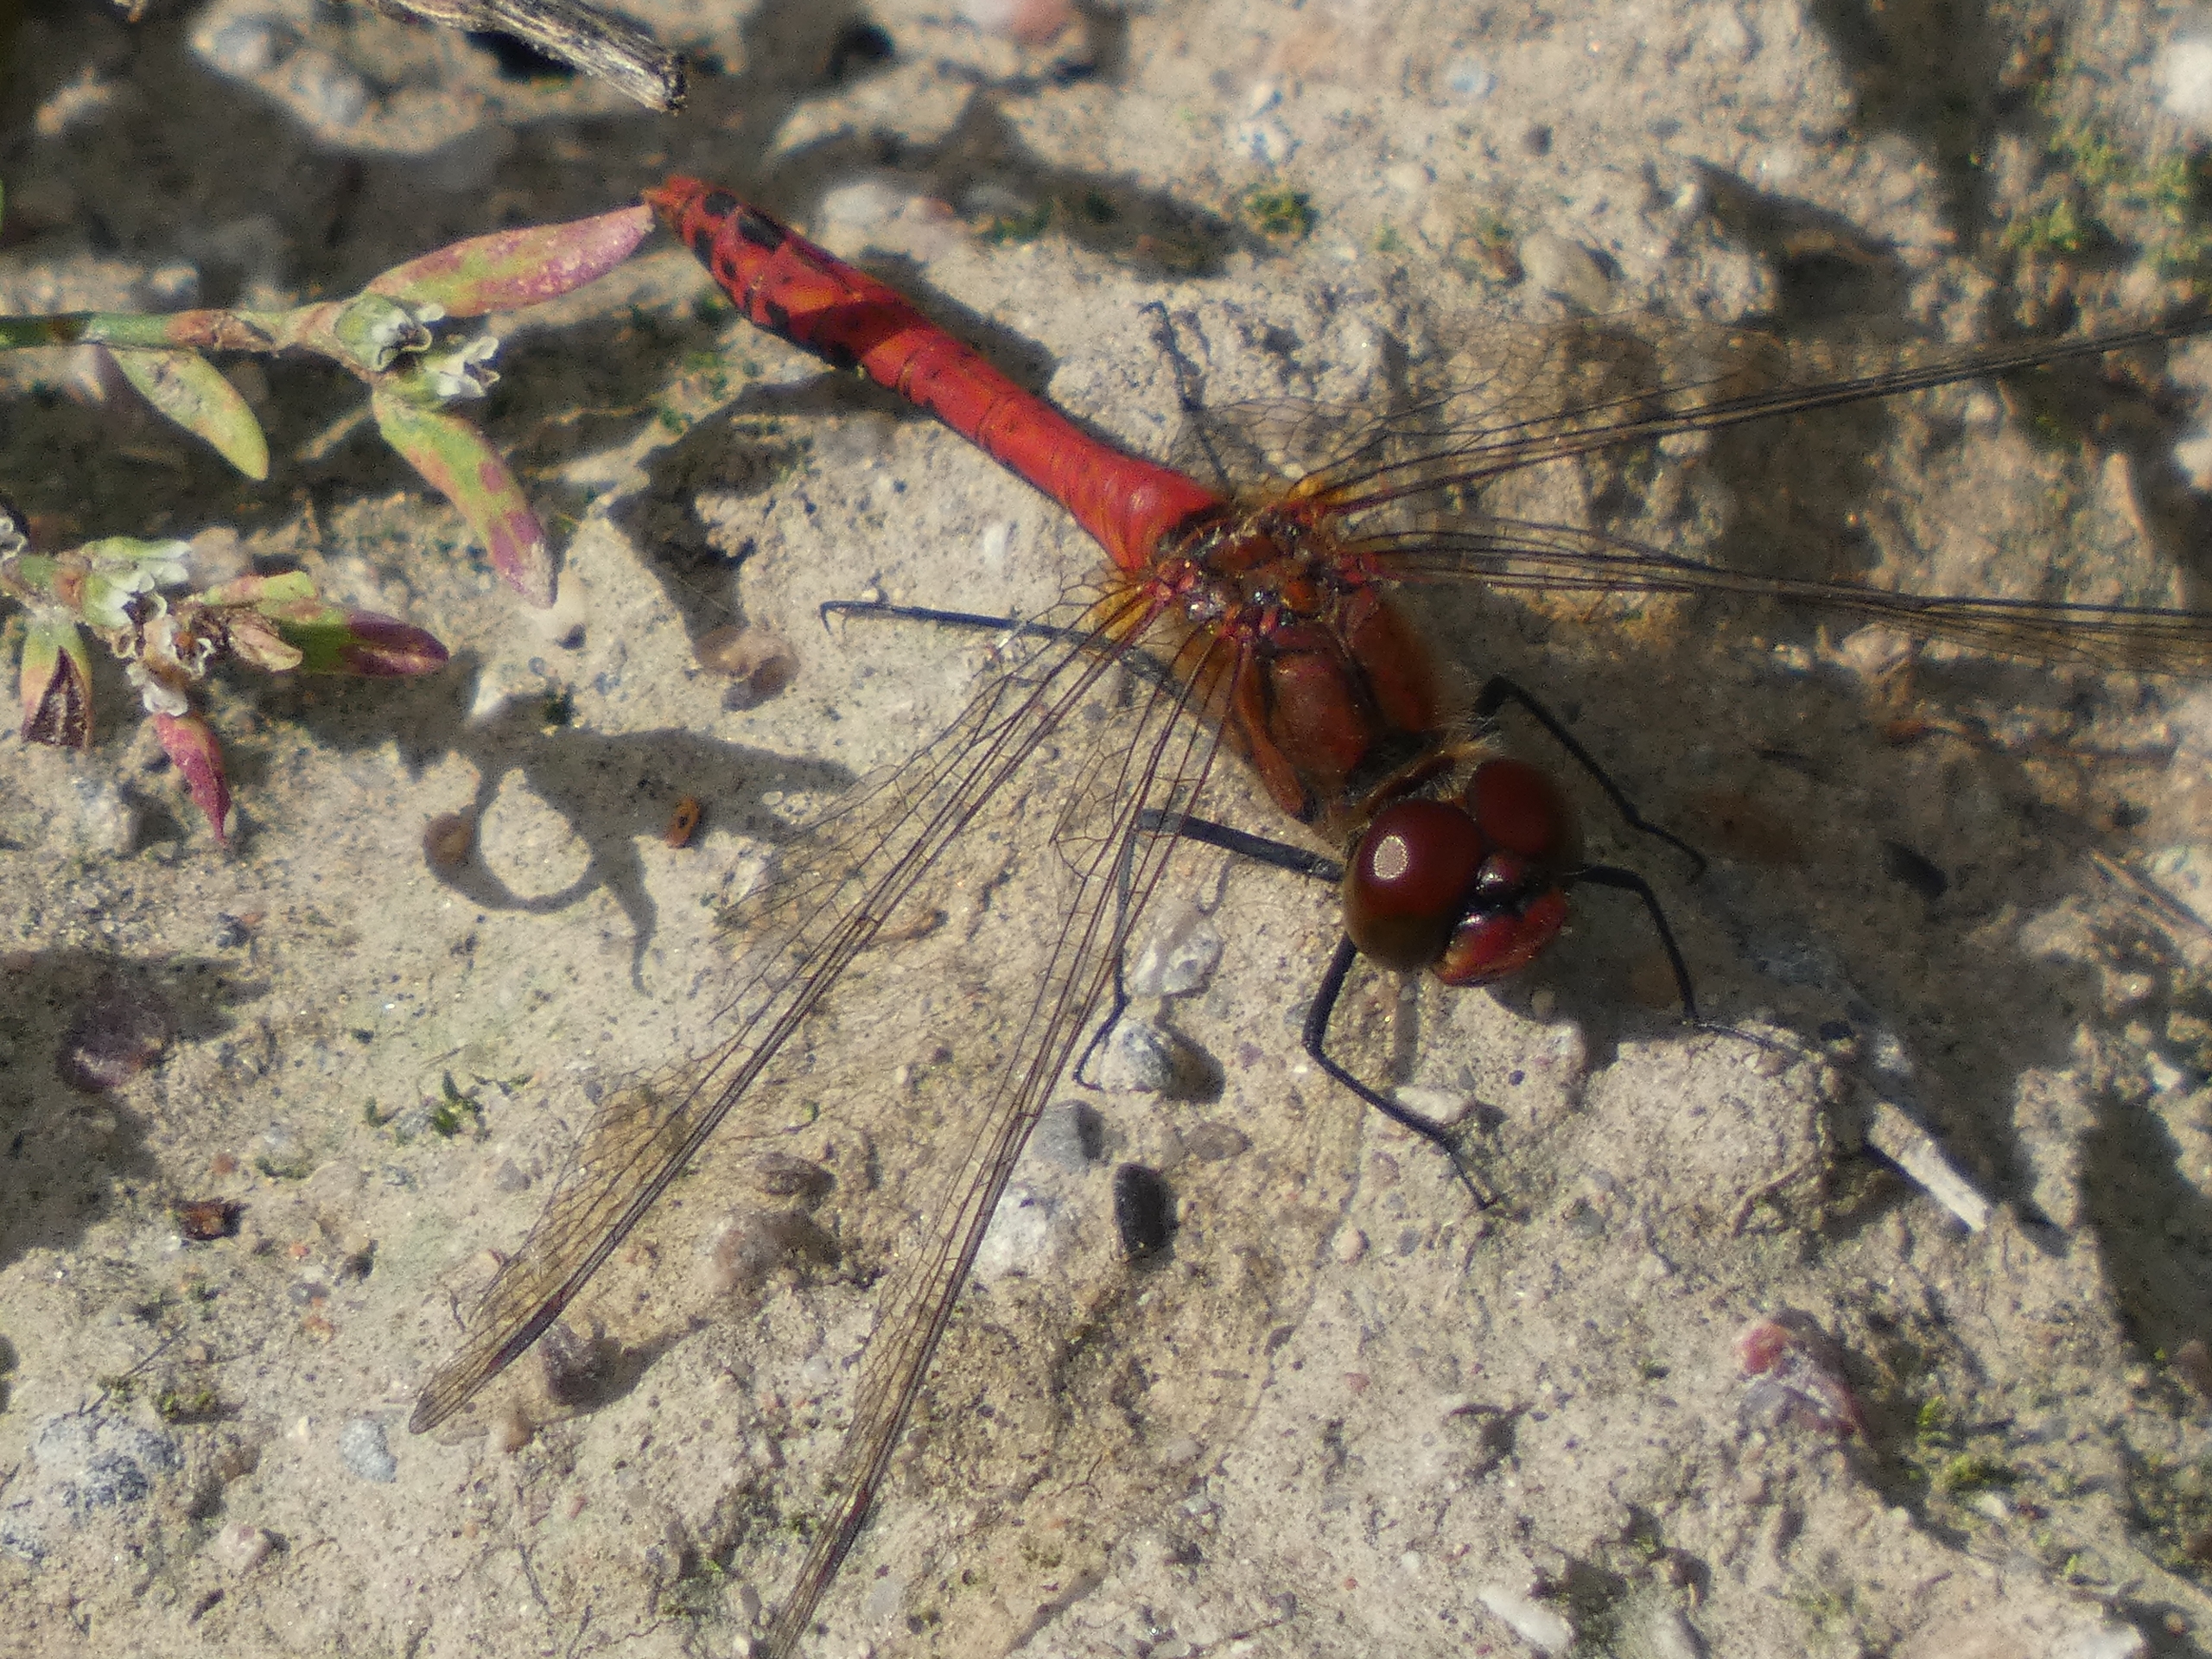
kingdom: Animalia
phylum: Arthropoda
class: Insecta
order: Odonata
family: Libellulidae
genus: Sympetrum
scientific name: Sympetrum sanguineum
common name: Blodrød hedelibel
